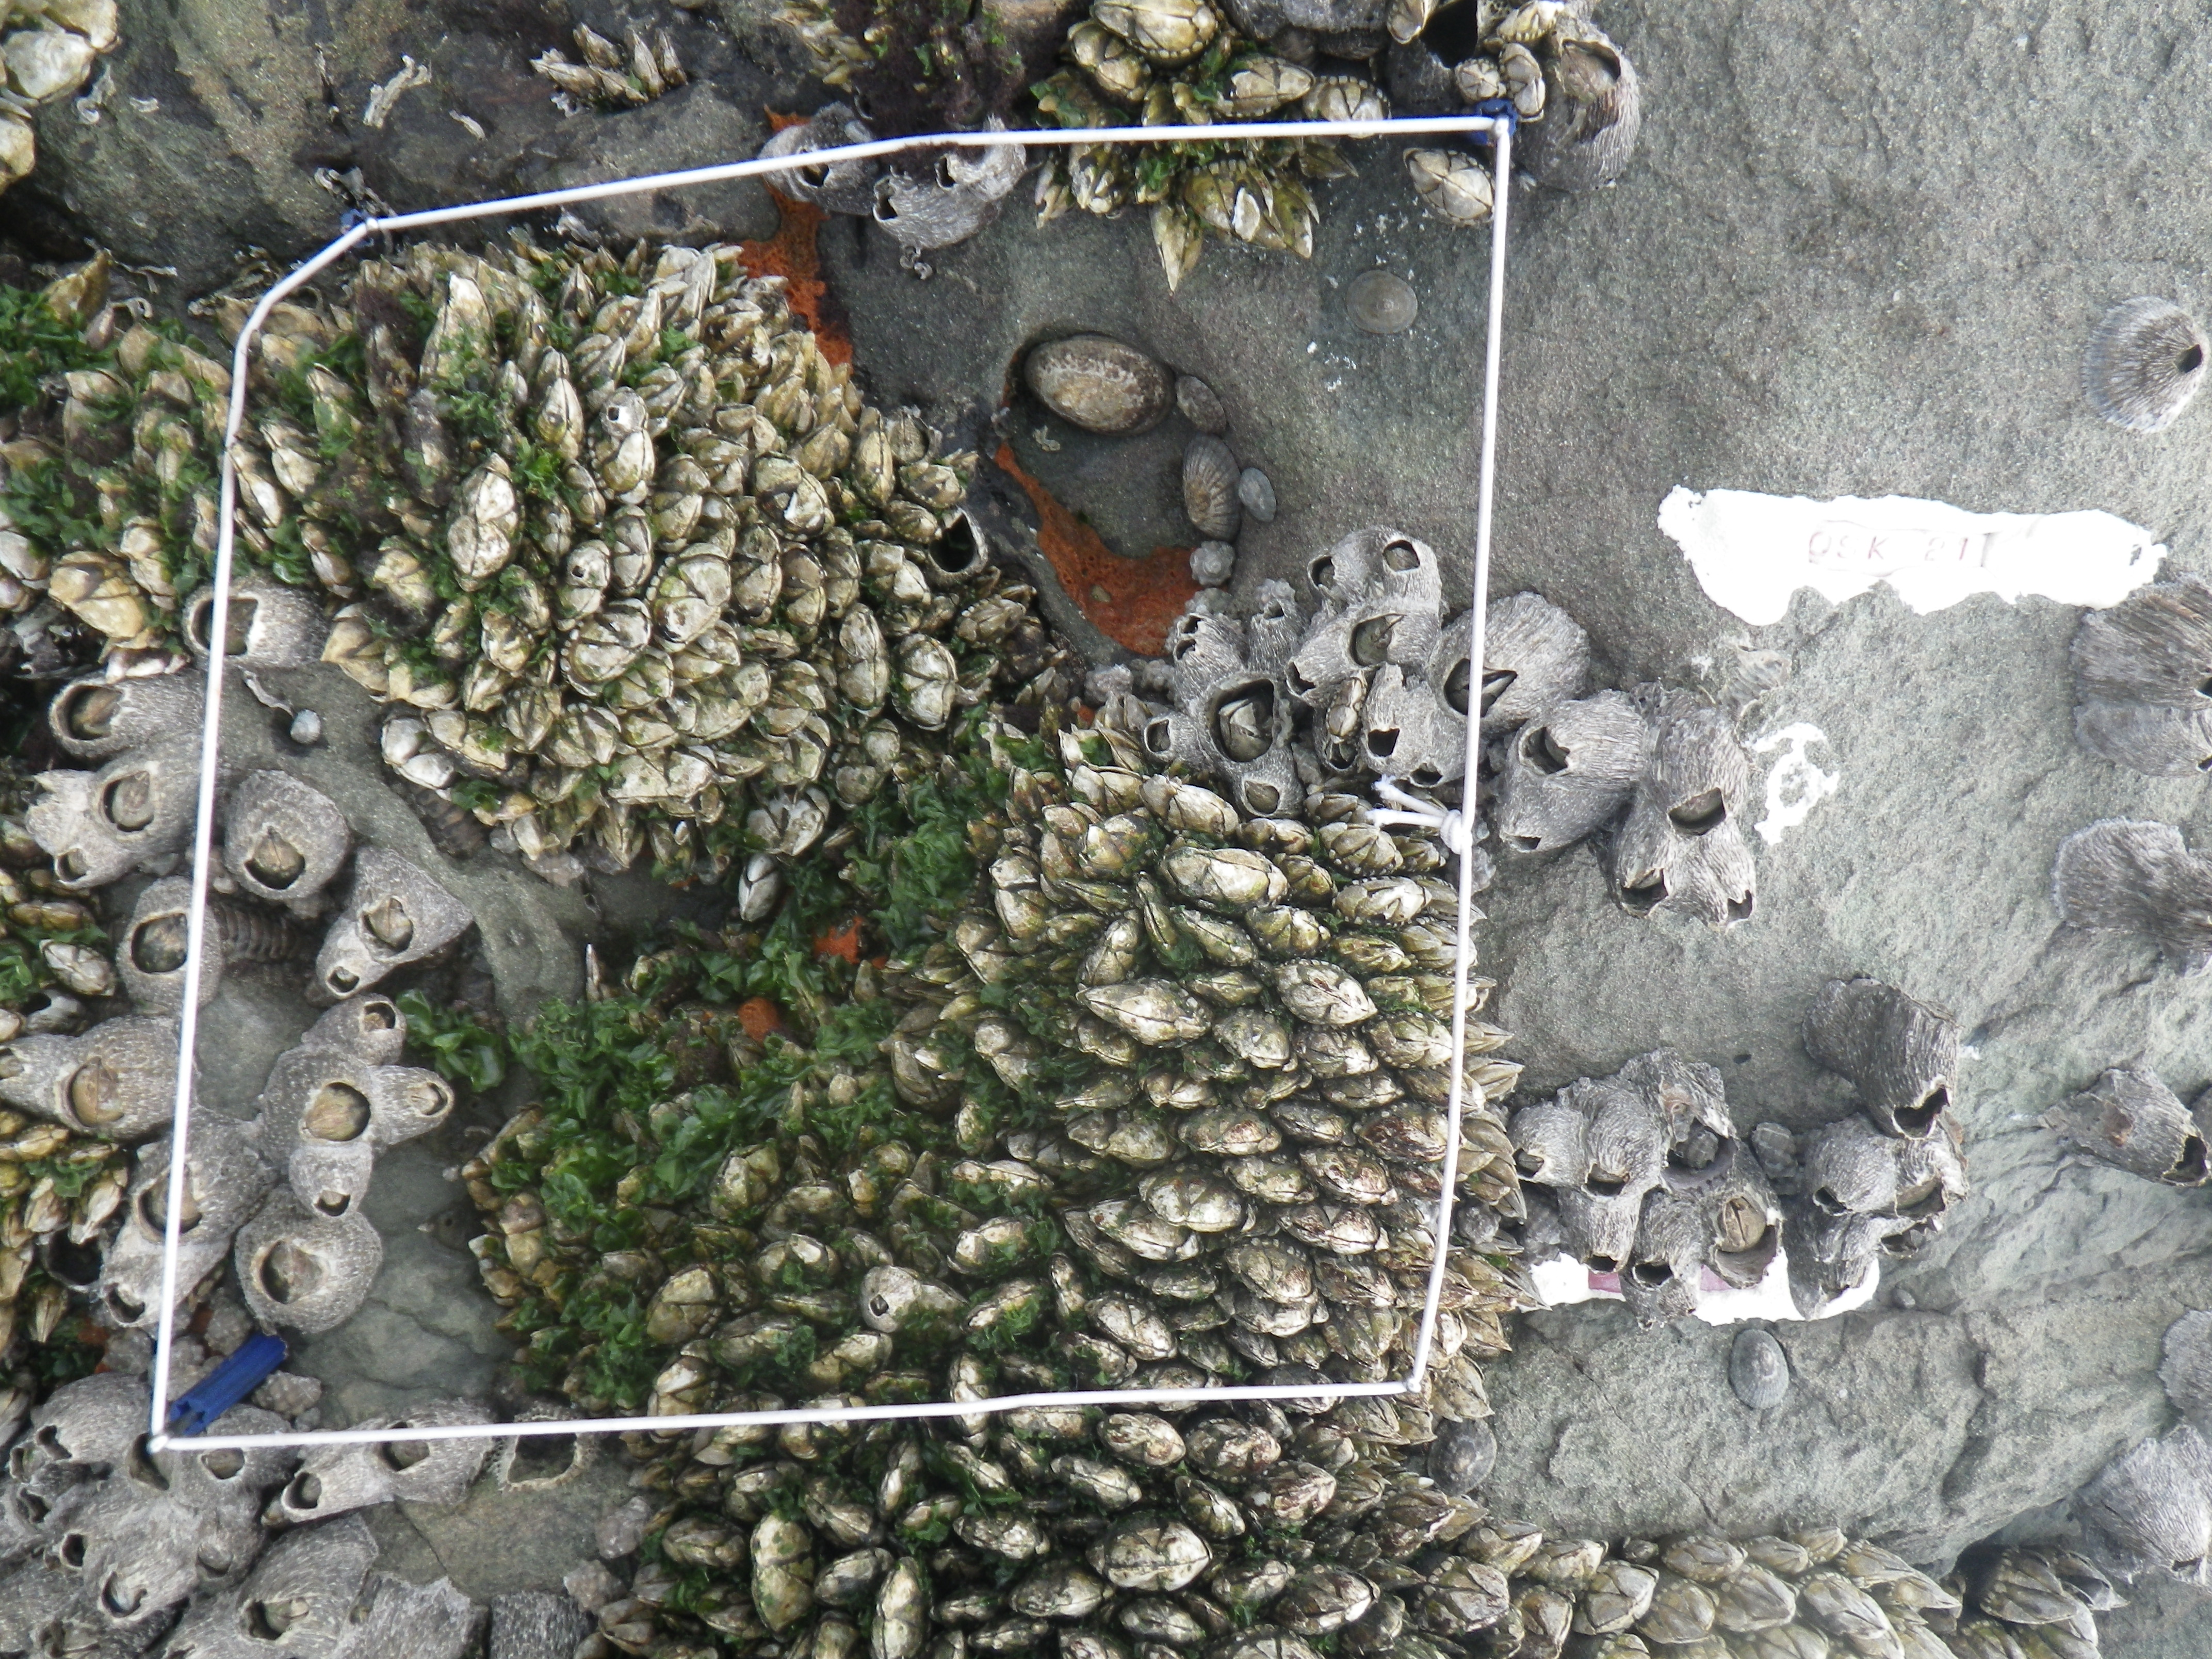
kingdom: Animalia
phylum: Arthropoda
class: Maxillopoda
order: Sessilia
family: Chthamalidae
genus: Chthamalus
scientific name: Chthamalus challengeri
